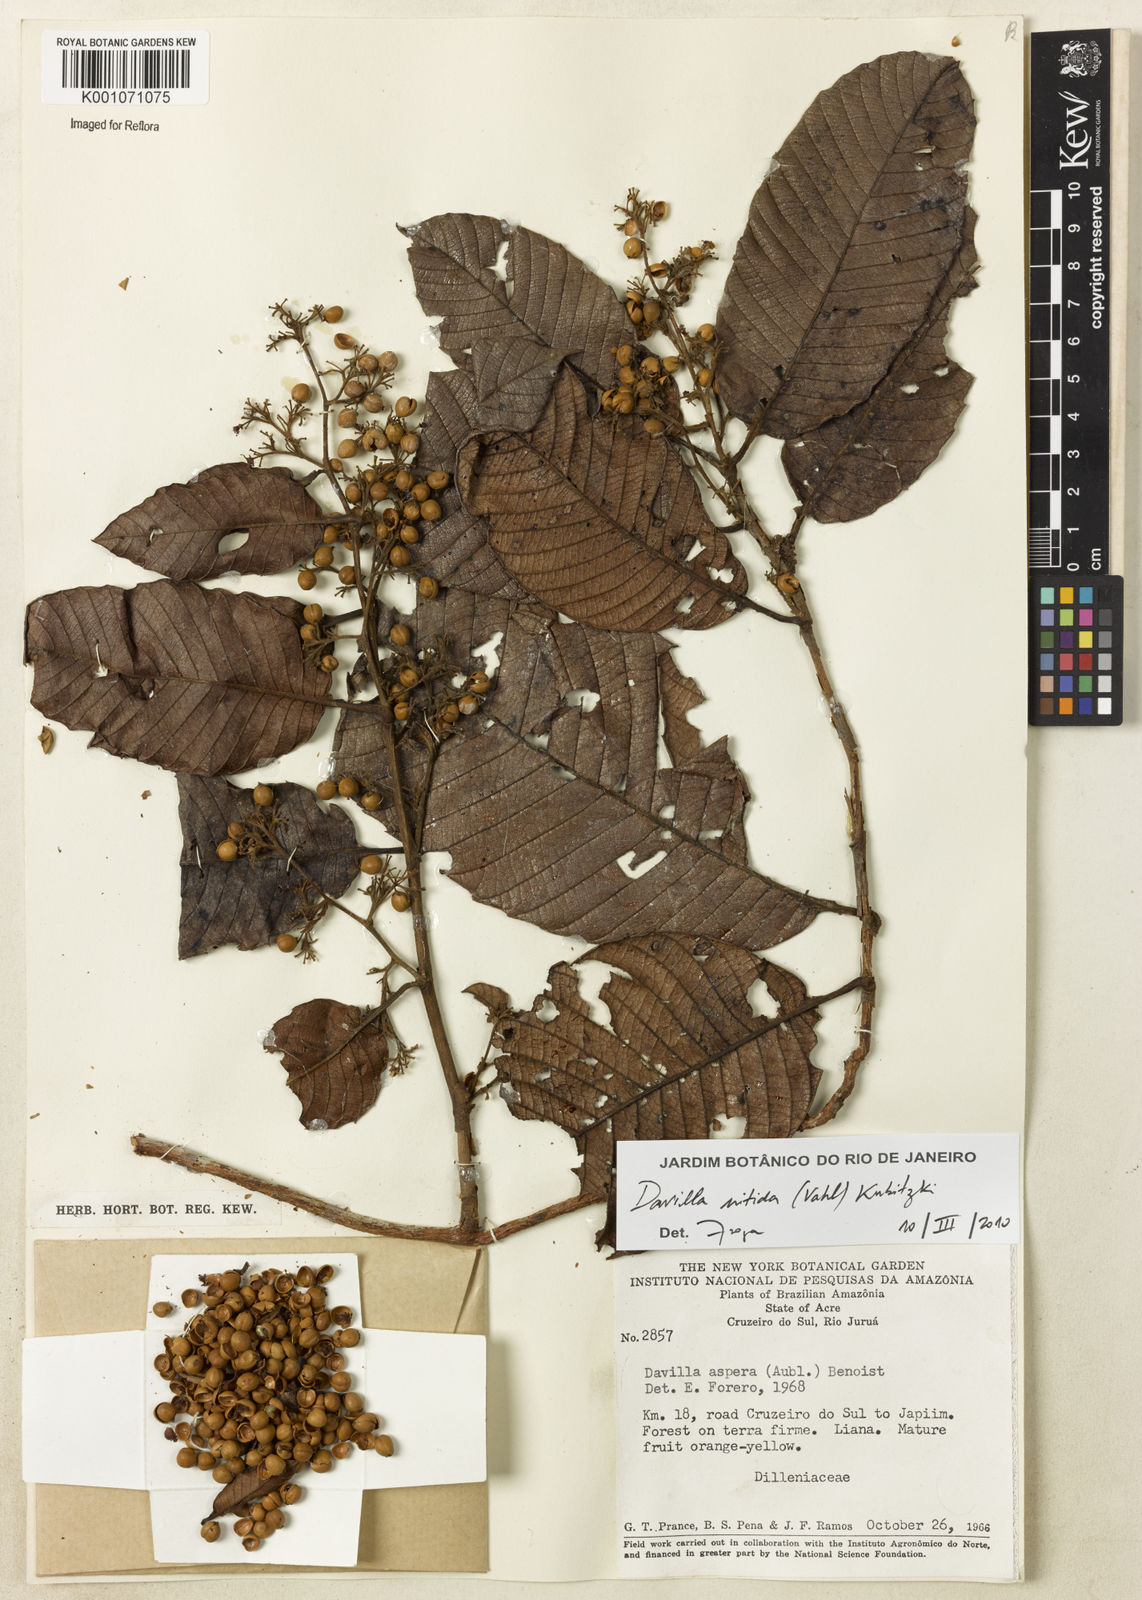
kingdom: Plantae
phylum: Tracheophyta
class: Magnoliopsida
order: Dilleniales
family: Dilleniaceae
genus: Davilla
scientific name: Davilla kunthii
